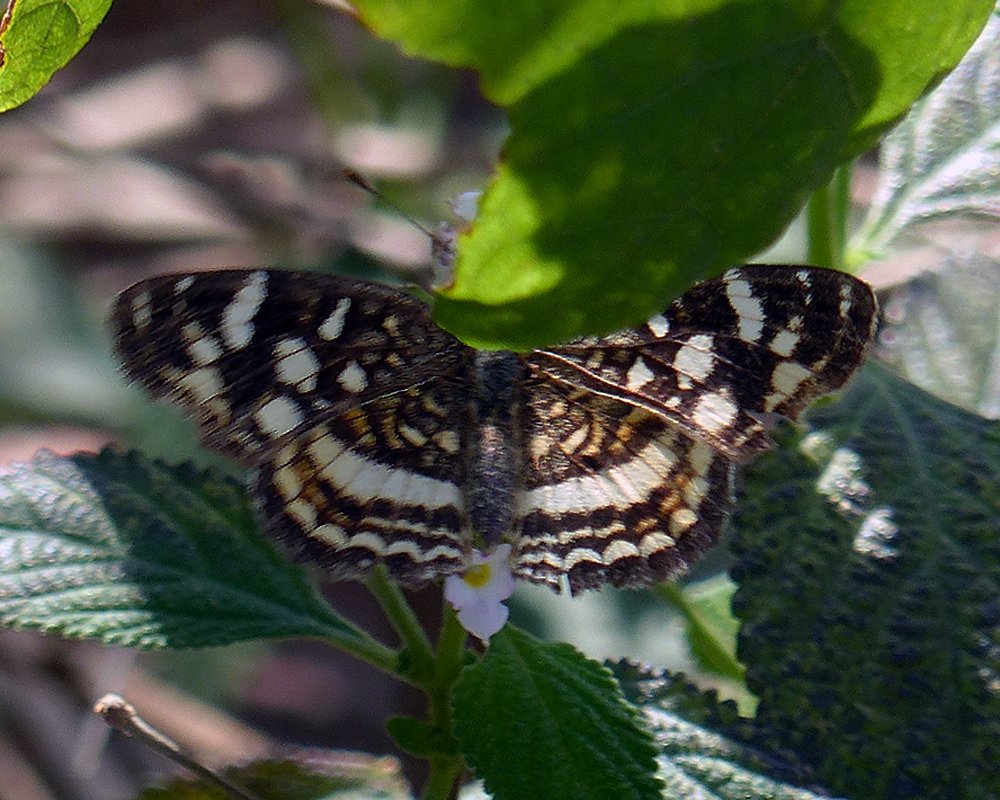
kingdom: Animalia
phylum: Arthropoda
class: Insecta
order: Lepidoptera
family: Nymphalidae
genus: Anthanassa
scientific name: Anthanassa tulcis
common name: Pale-banded Crescent
